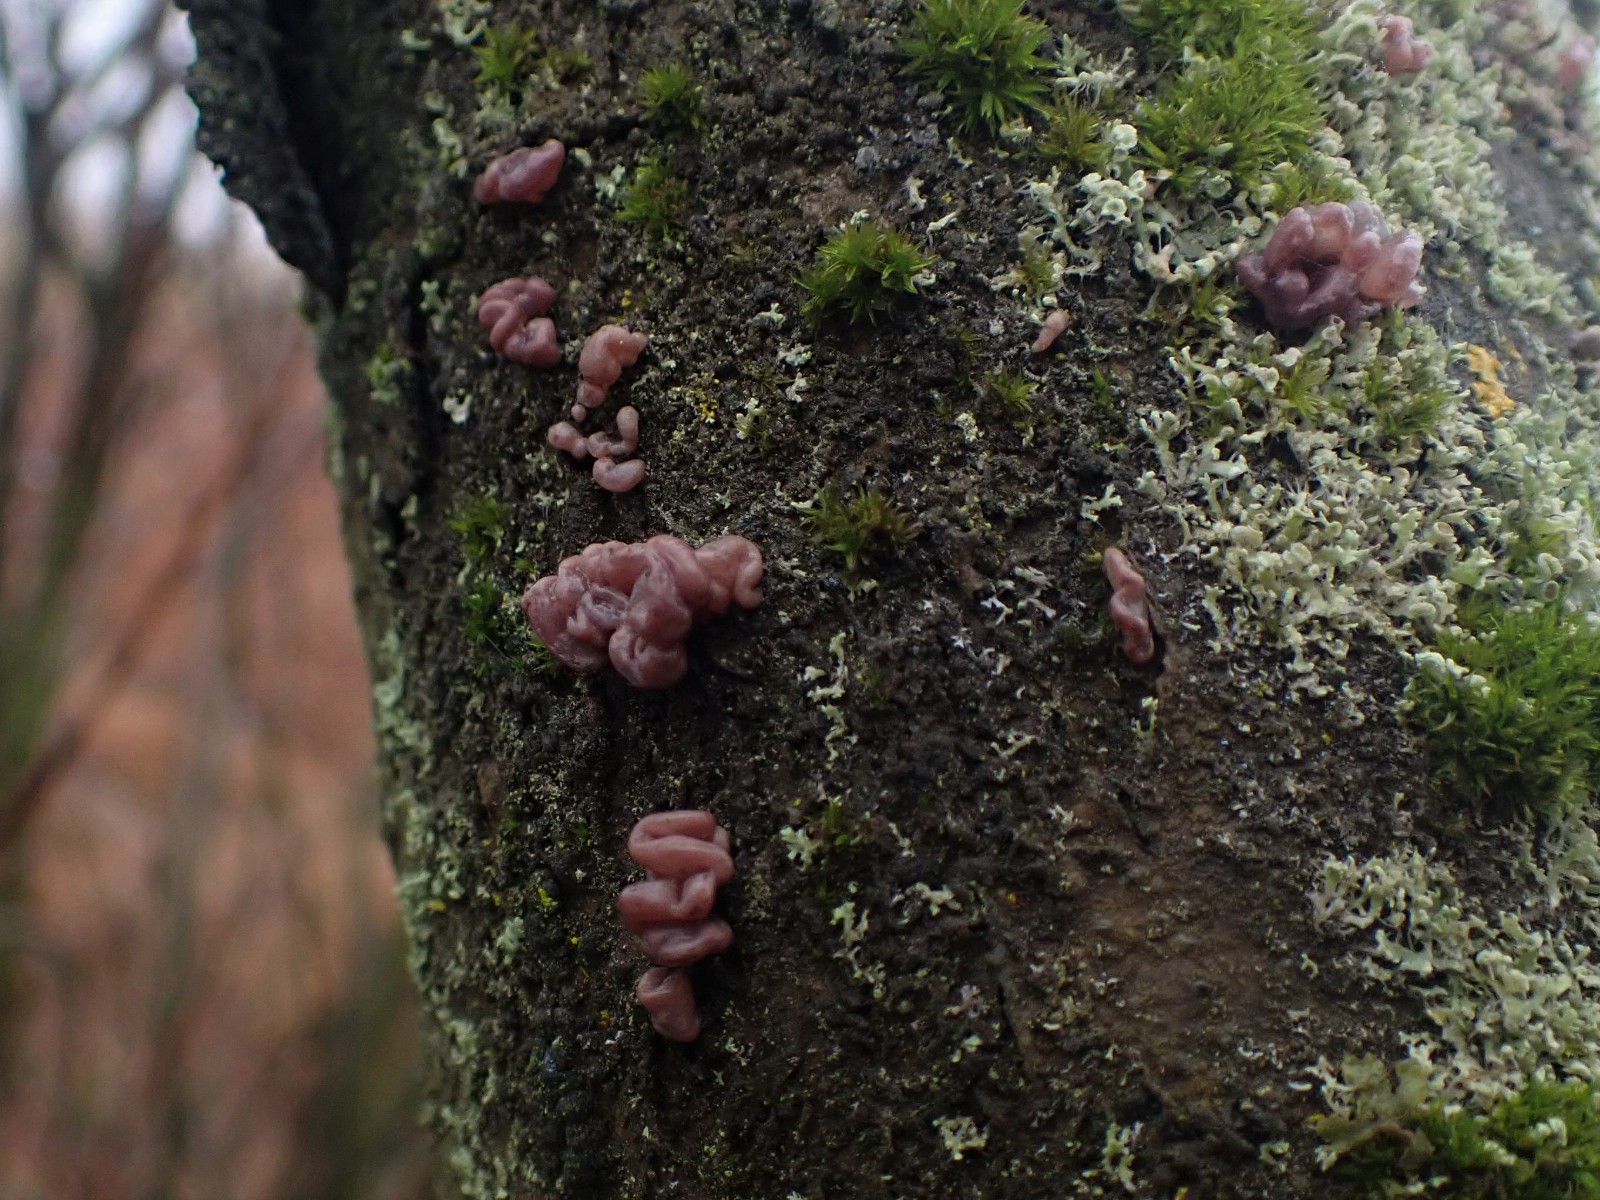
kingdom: Fungi
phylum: Ascomycota
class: Leotiomycetes
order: Helotiales
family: Gelatinodiscaceae
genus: Ascocoryne
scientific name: Ascocoryne sarcoides
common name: rødlilla sejskive
